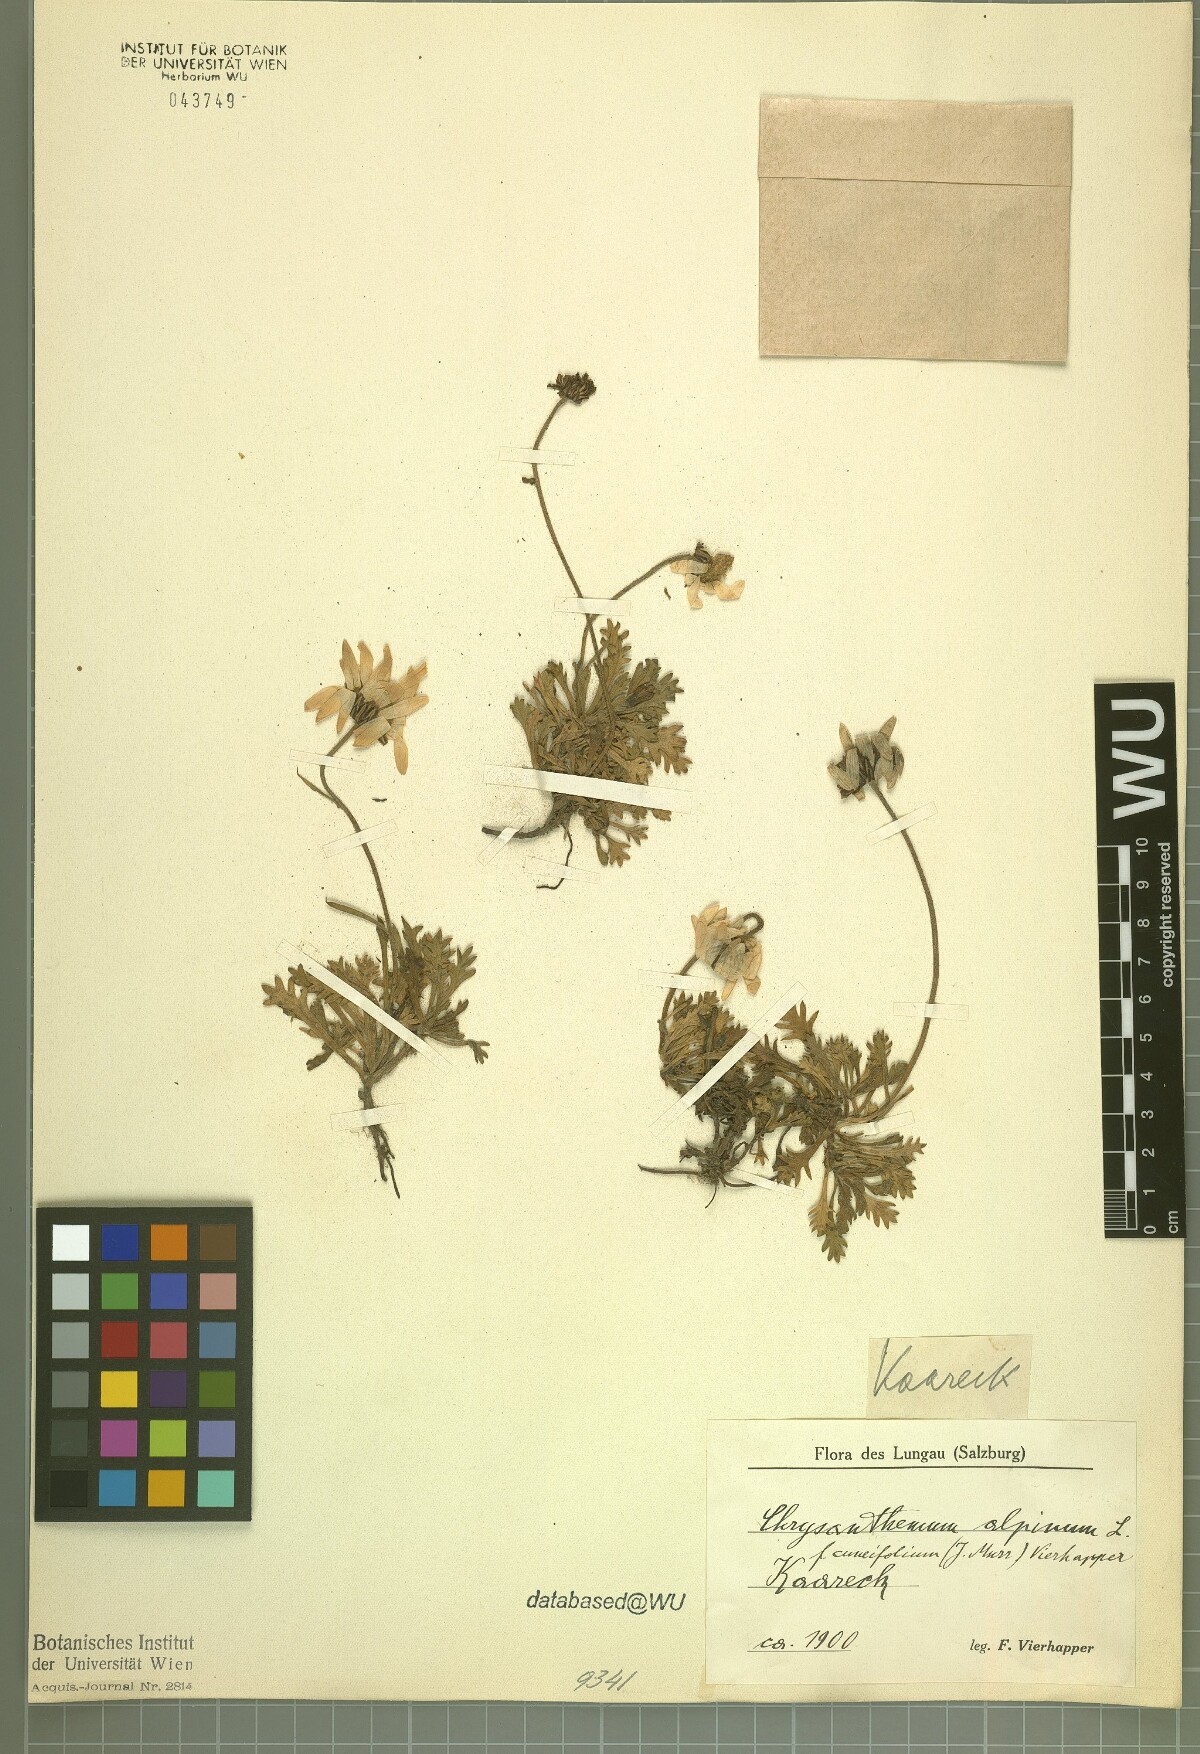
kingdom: Plantae
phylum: Tracheophyta
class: Magnoliopsida
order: Asterales
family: Asteraceae
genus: Leucanthemopsis
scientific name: Leucanthemopsis alpina
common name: Alpine moon daisy
